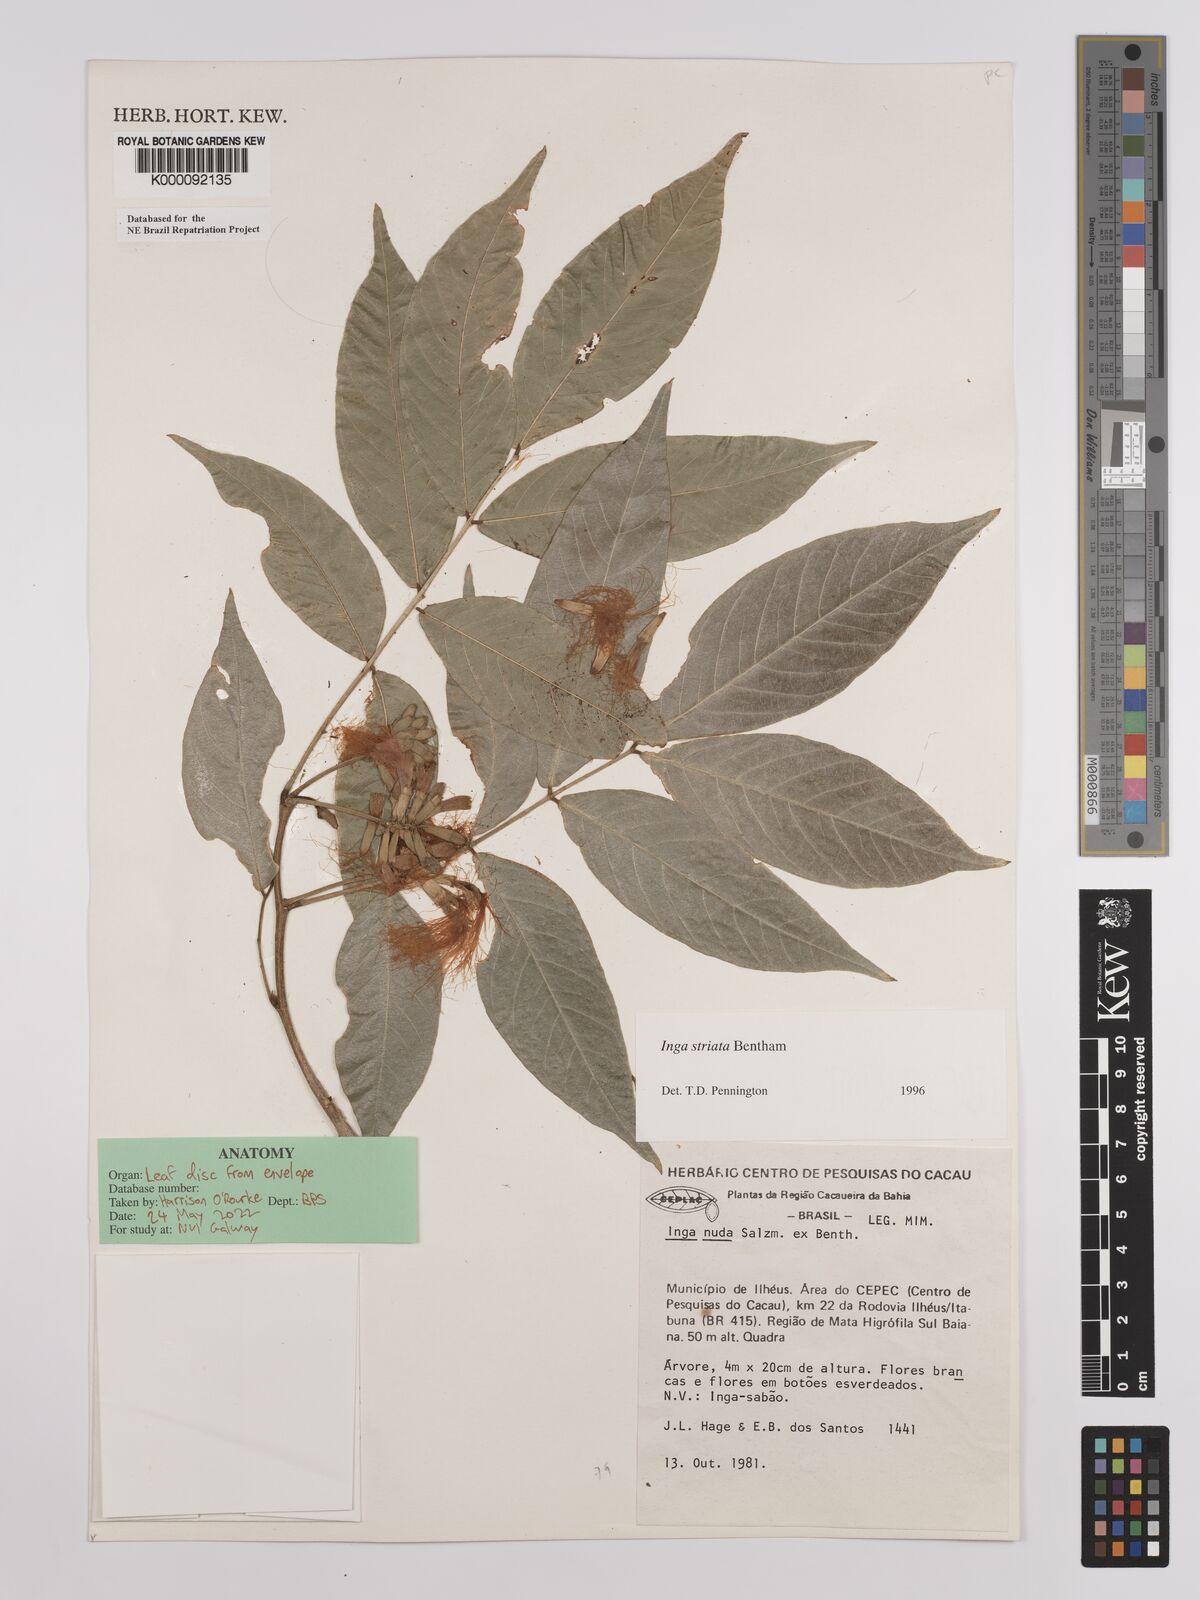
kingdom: Plantae
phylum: Tracheophyta
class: Magnoliopsida
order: Fabales
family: Fabaceae
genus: Inga
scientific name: Inga striata
